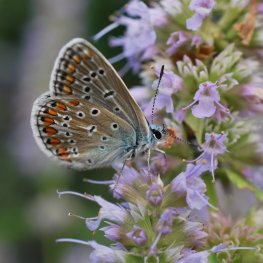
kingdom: Animalia
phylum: Arthropoda
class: Insecta
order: Lepidoptera
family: Lycaenidae
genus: Polyommatus
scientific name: Polyommatus icarus
